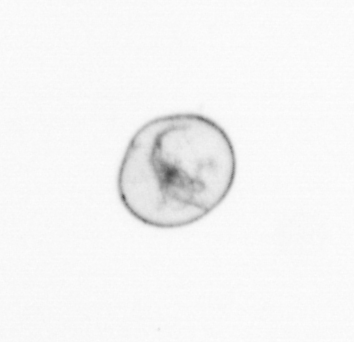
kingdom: Chromista
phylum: Myzozoa
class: Dinophyceae
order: Noctilucales
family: Noctilucaceae
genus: Noctiluca
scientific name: Noctiluca scintillans
